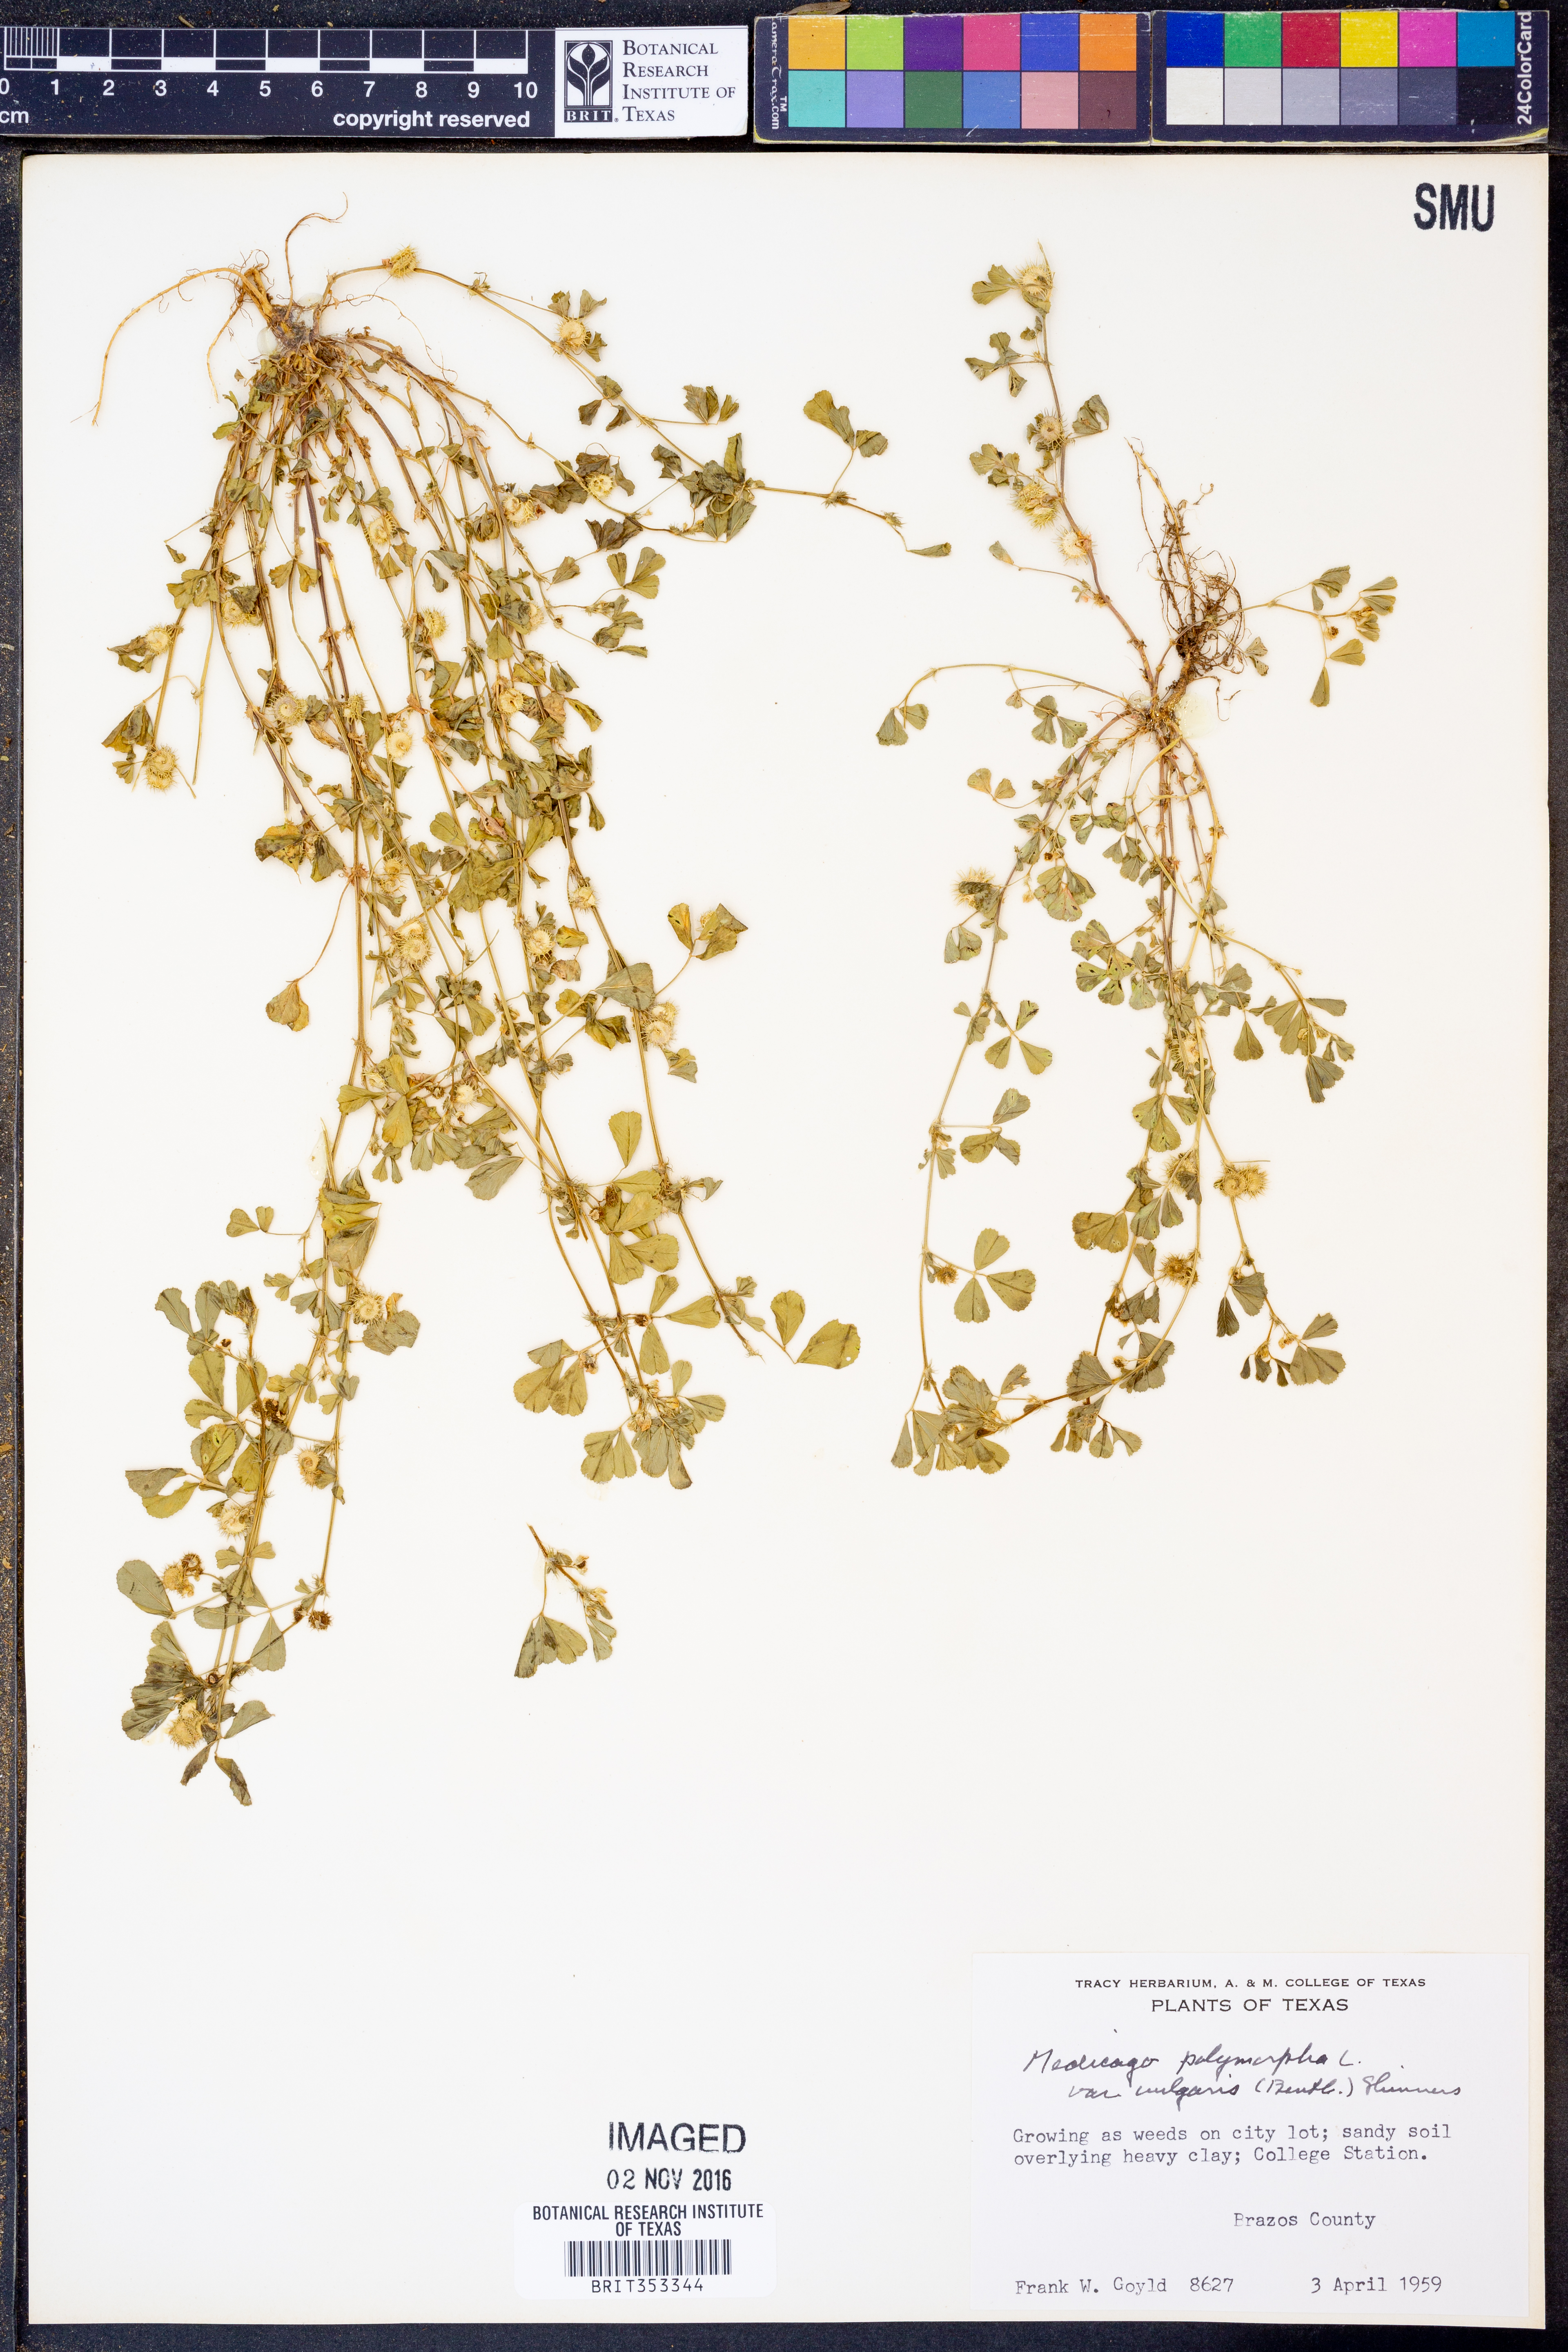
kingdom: Plantae
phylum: Tracheophyta
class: Magnoliopsida
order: Fabales
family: Fabaceae
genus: Medicago
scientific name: Medicago polymorpha
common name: Burclover
